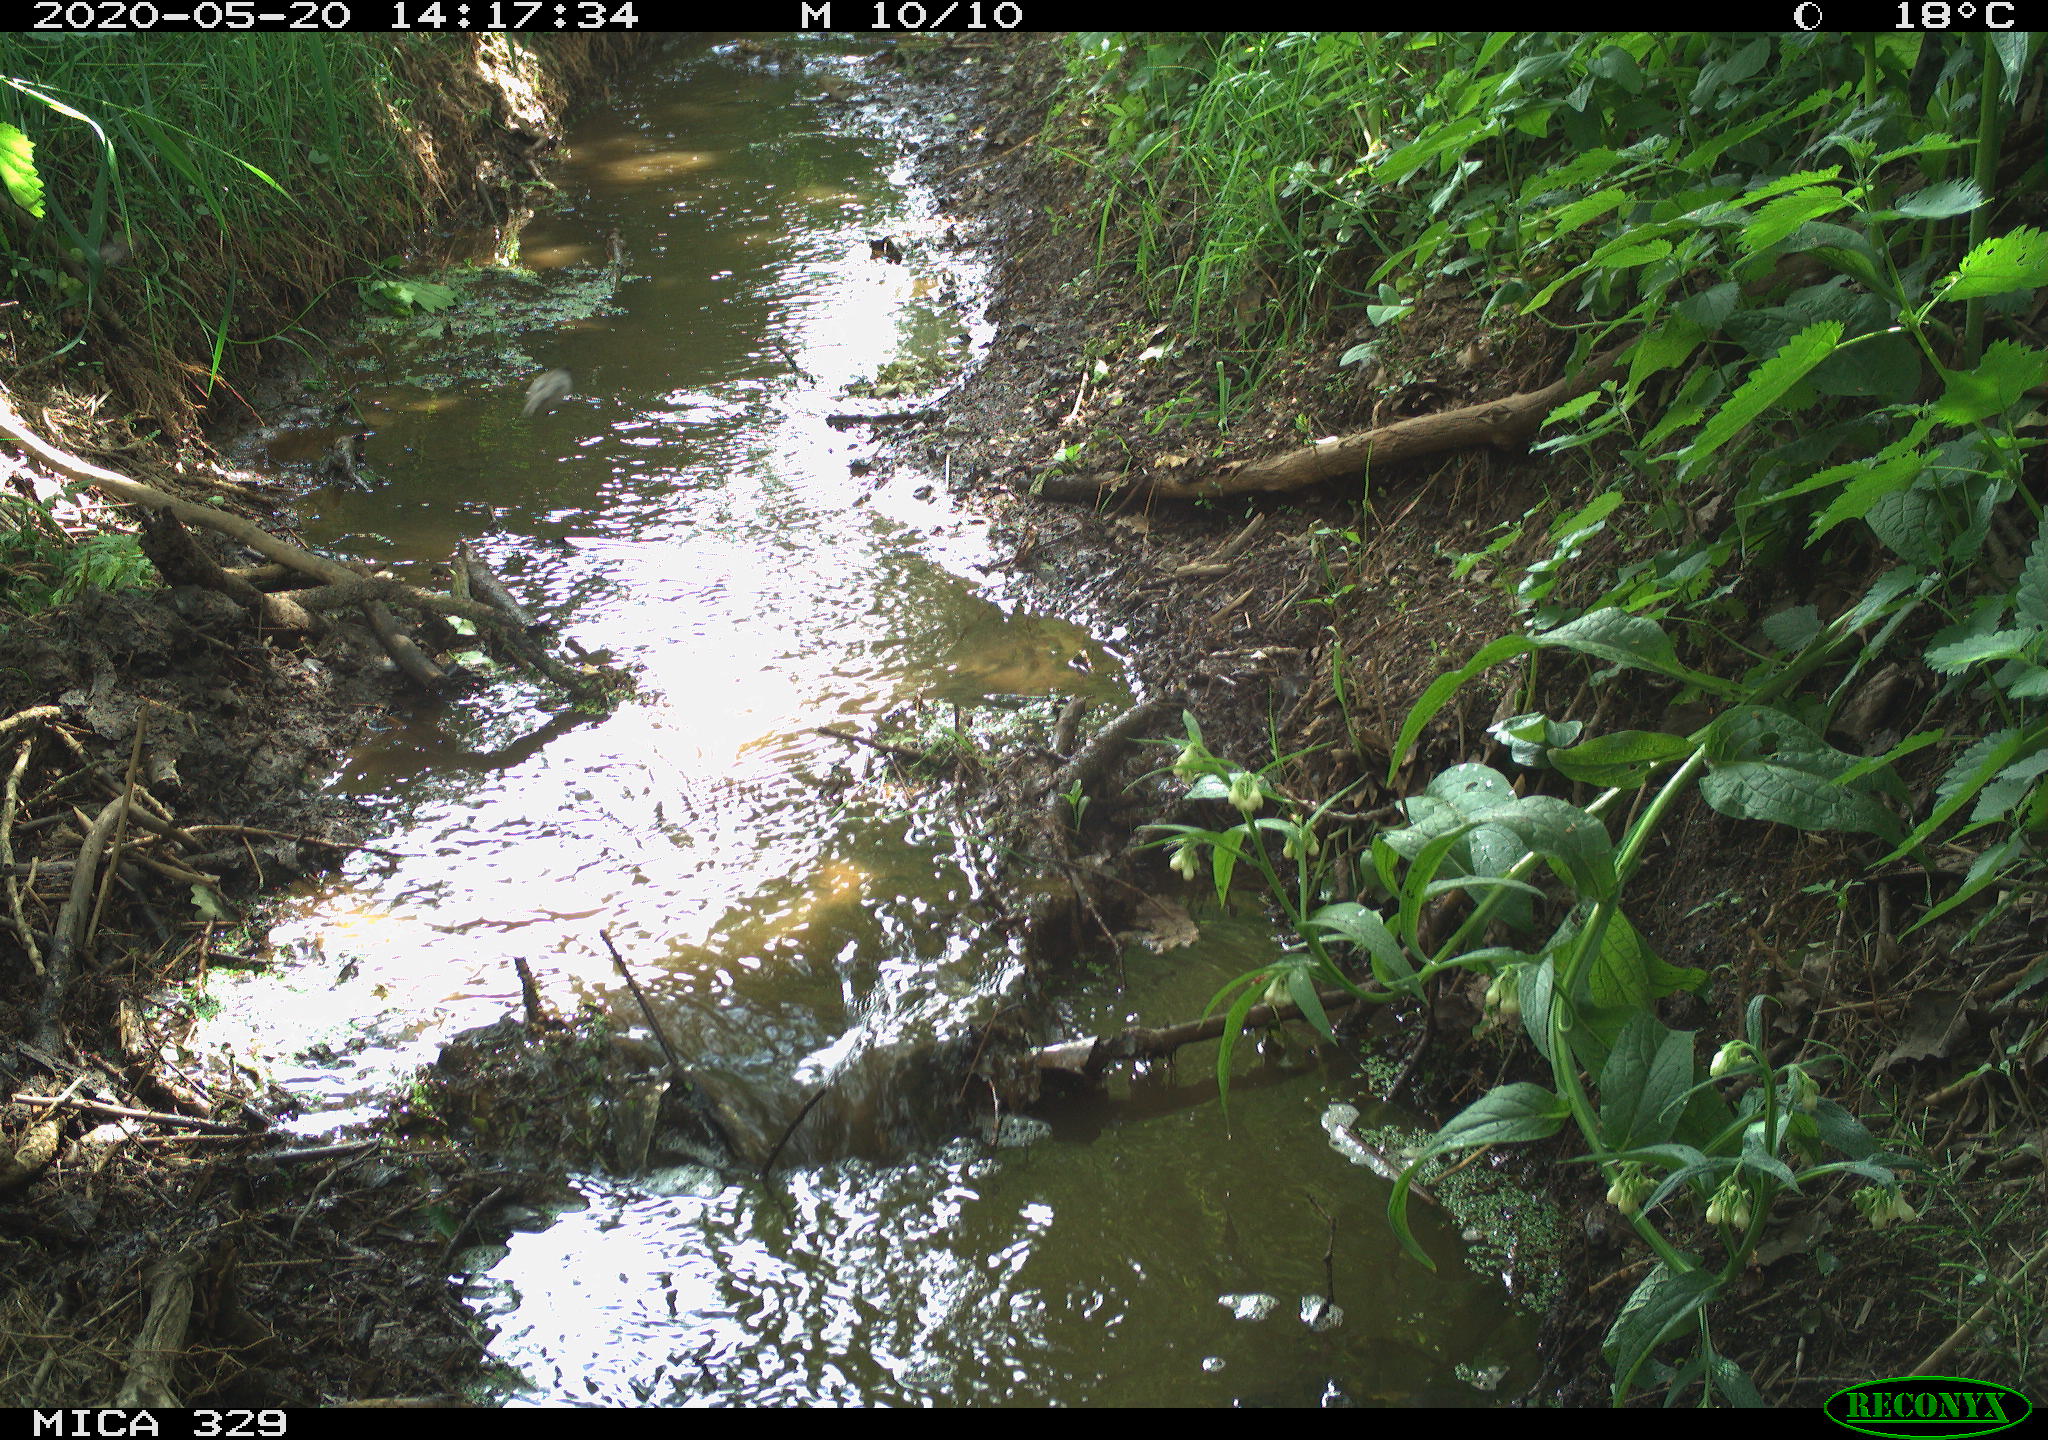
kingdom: Animalia
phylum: Chordata
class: Aves
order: Passeriformes
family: Sylviidae
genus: Sylvia
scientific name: Sylvia atricapilla
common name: Eurasian blackcap
